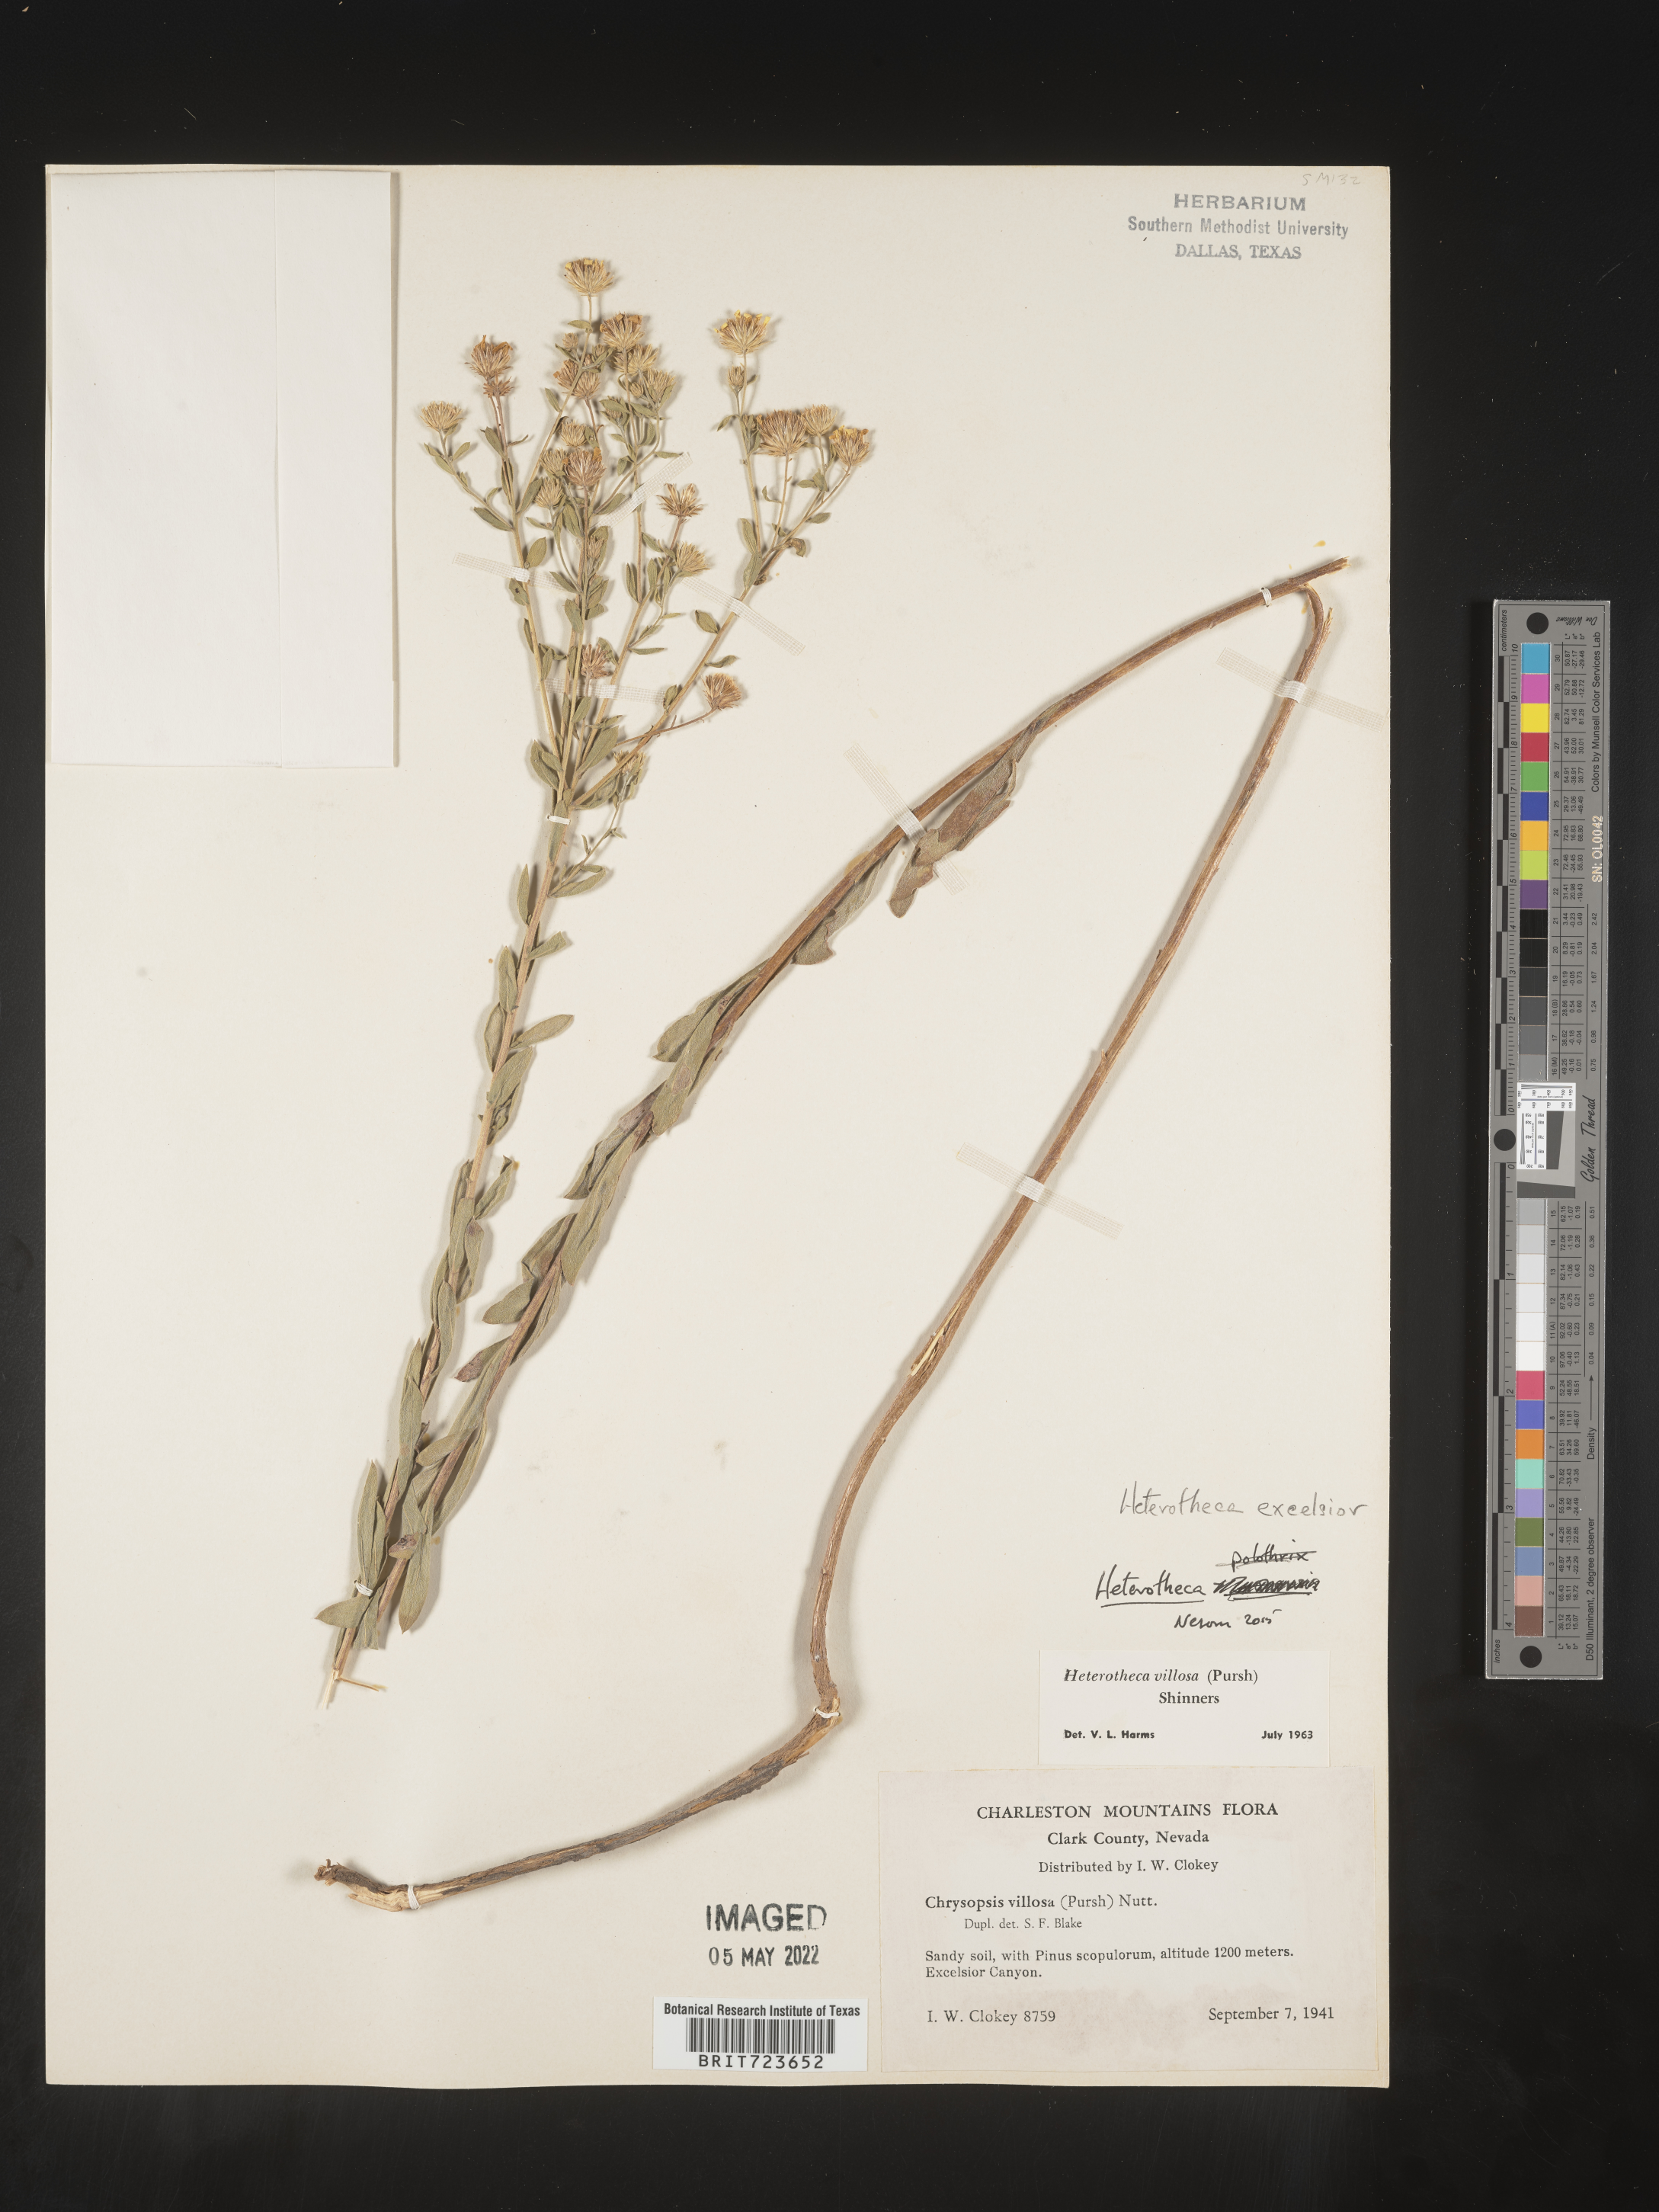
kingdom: Plantae
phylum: Tracheophyta
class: Magnoliopsida
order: Asterales
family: Asteraceae
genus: Heterotheca
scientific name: Heterotheca excelsior
